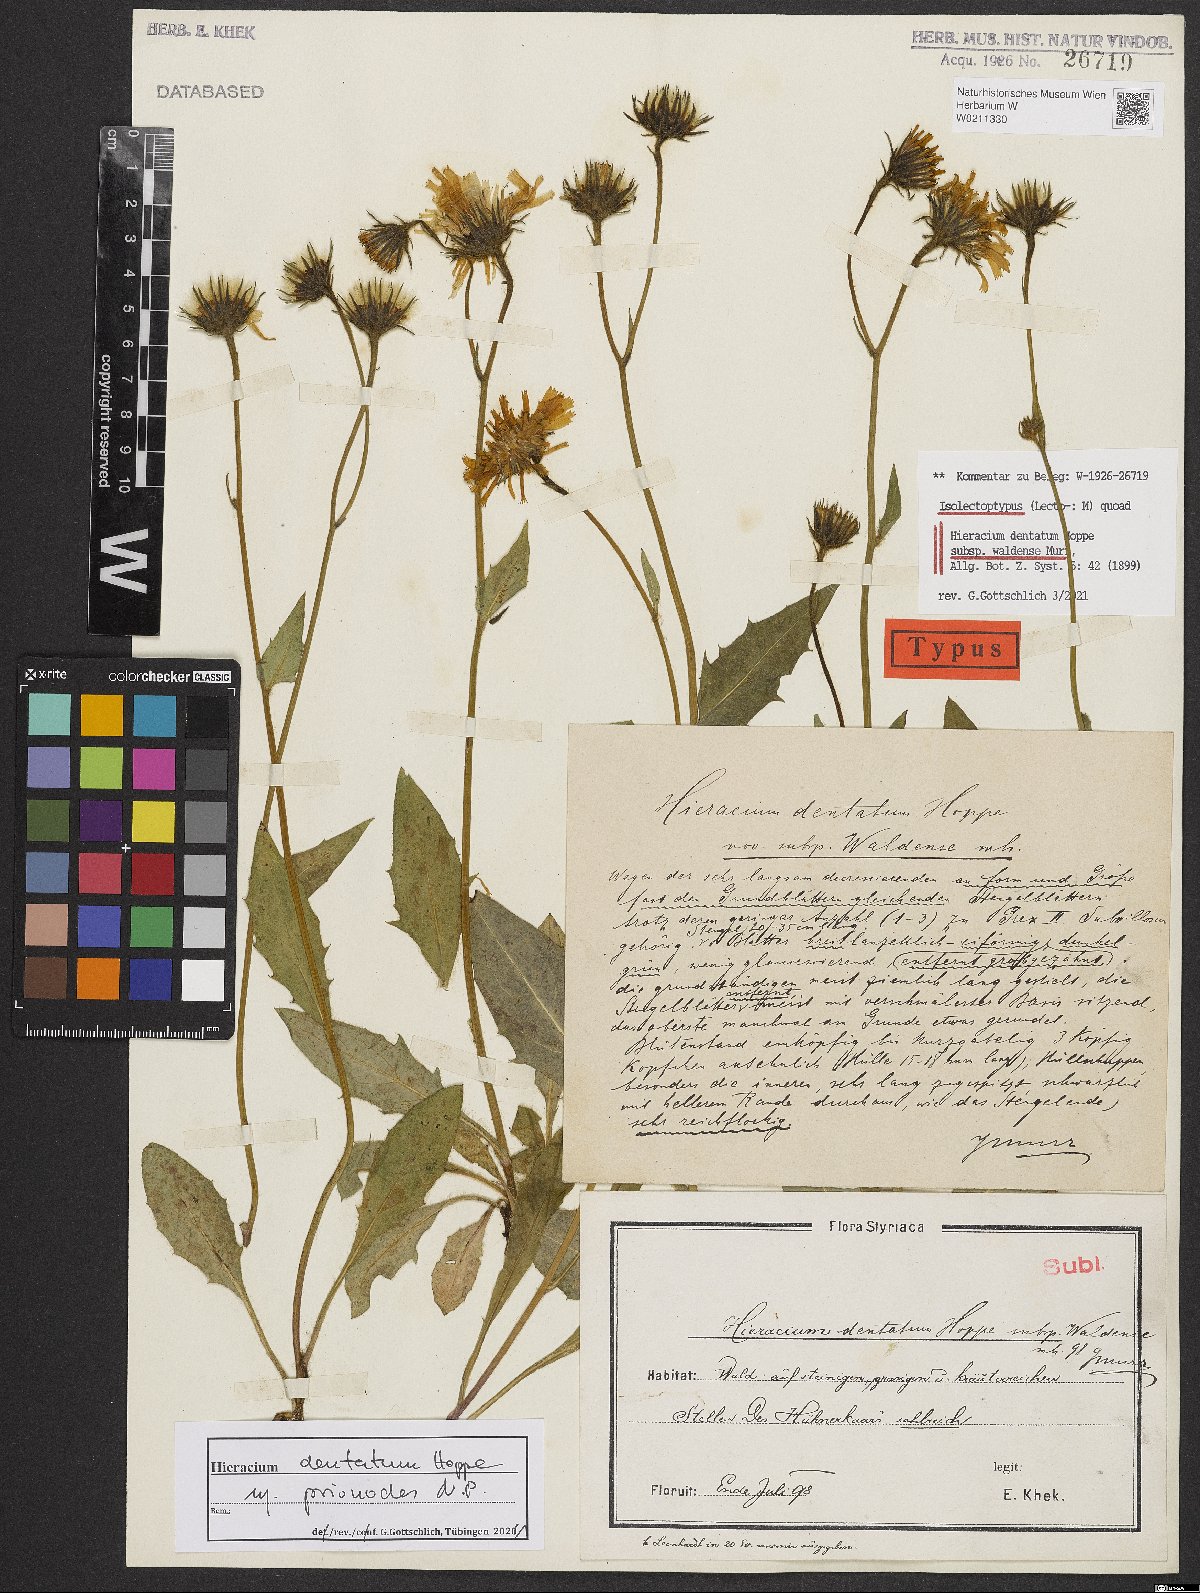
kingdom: Plantae
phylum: Tracheophyta
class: Magnoliopsida
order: Asterales
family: Asteraceae
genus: Hieracium
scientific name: Hieracium dentatum
